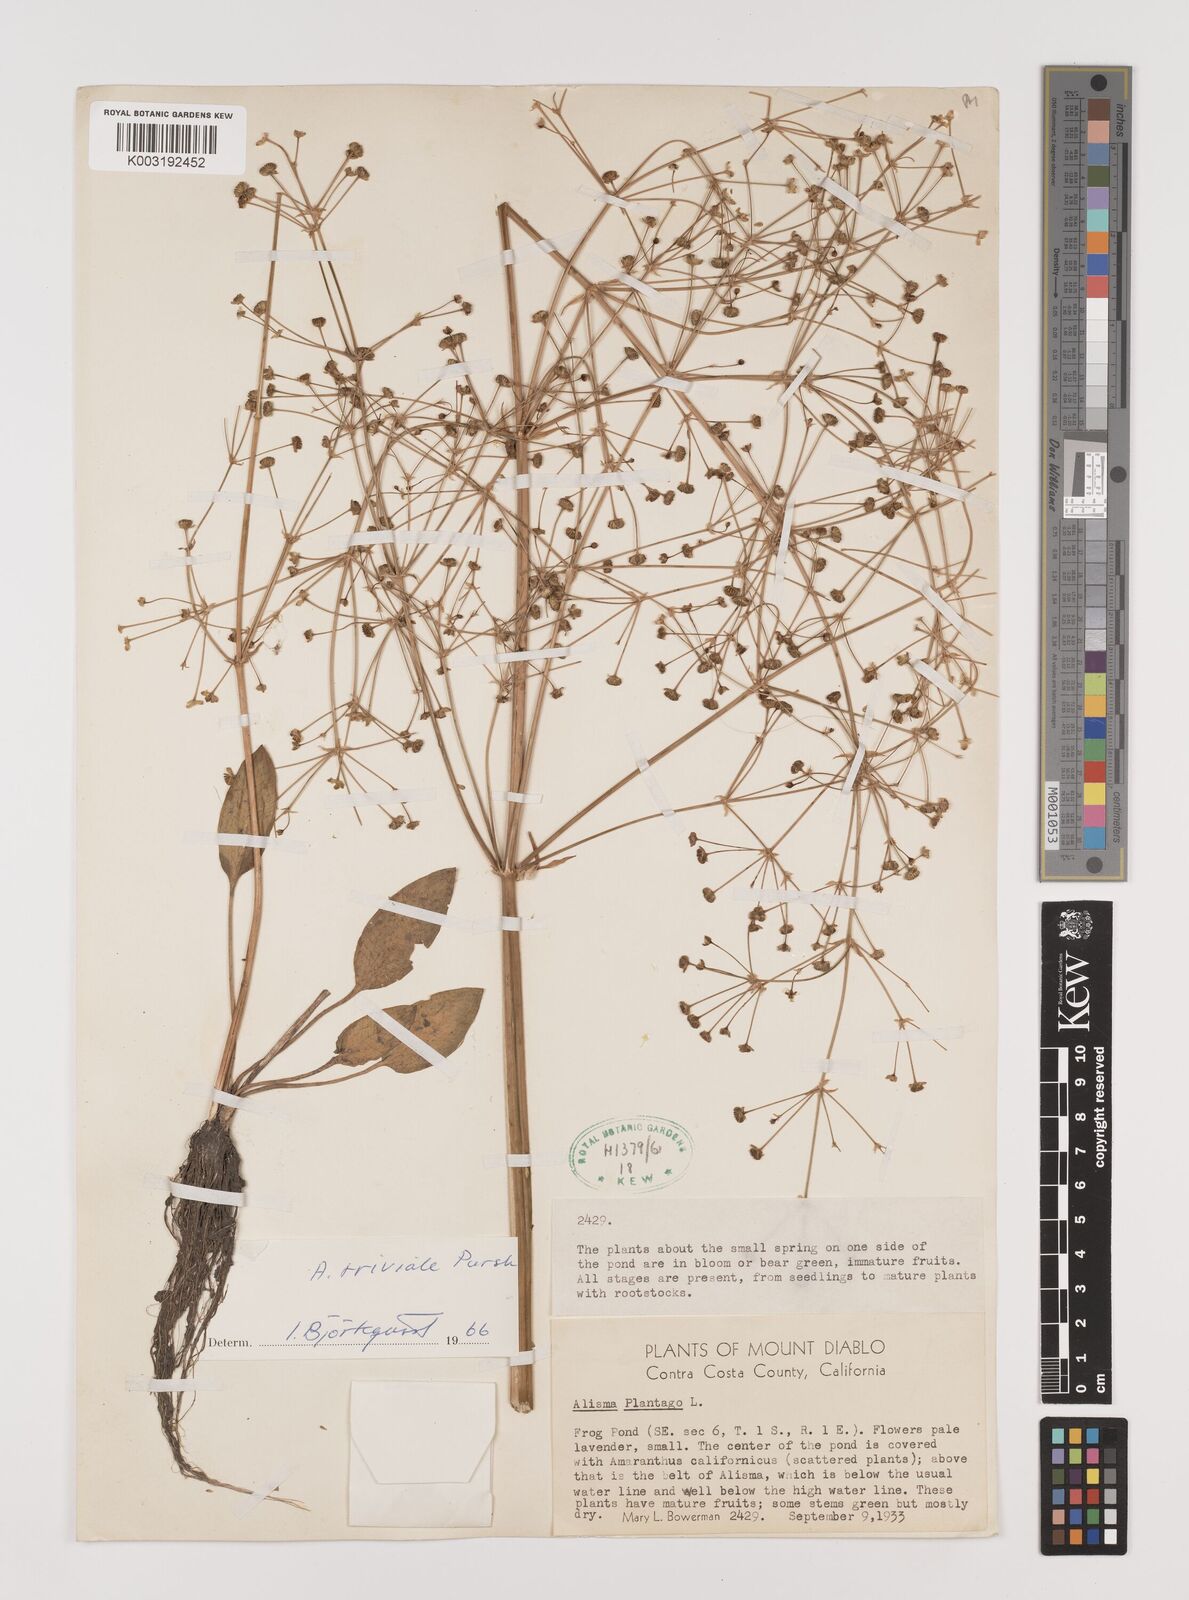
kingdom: Plantae
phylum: Tracheophyta
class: Liliopsida
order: Alismatales
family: Alismataceae
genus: Alisma
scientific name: Alisma plantago-aquatica
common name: Water-plantain
